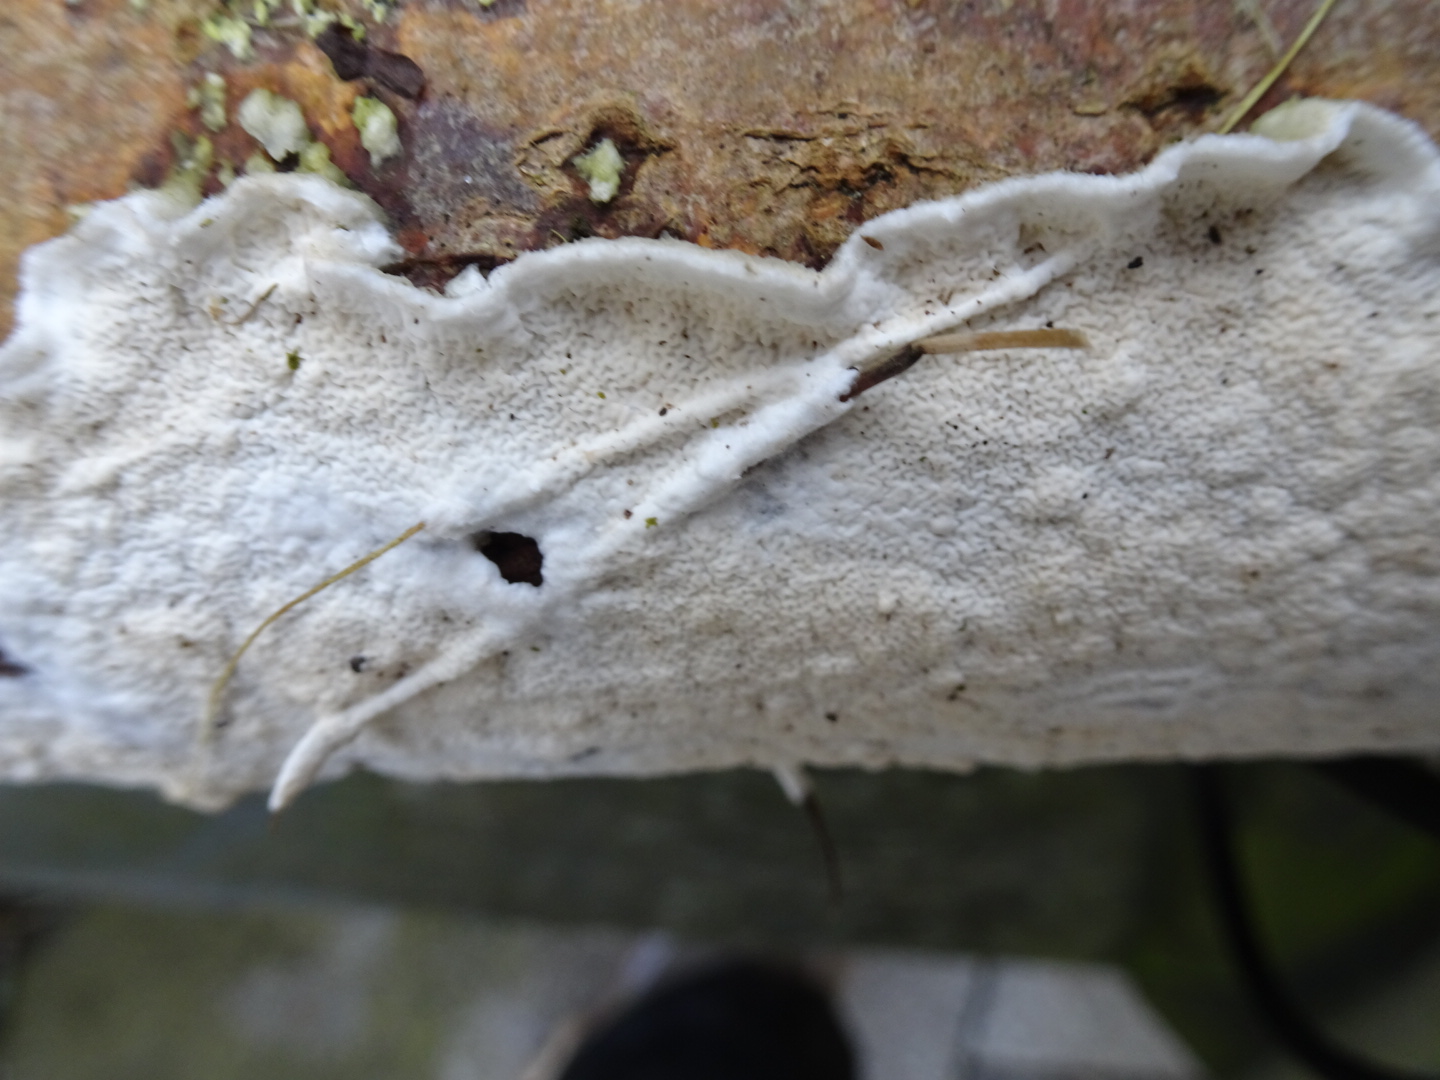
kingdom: Fungi
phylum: Basidiomycota
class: Agaricomycetes
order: Polyporales
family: Irpicaceae
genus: Byssomerulius
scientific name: Byssomerulius corium
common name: læder-åresvamp
